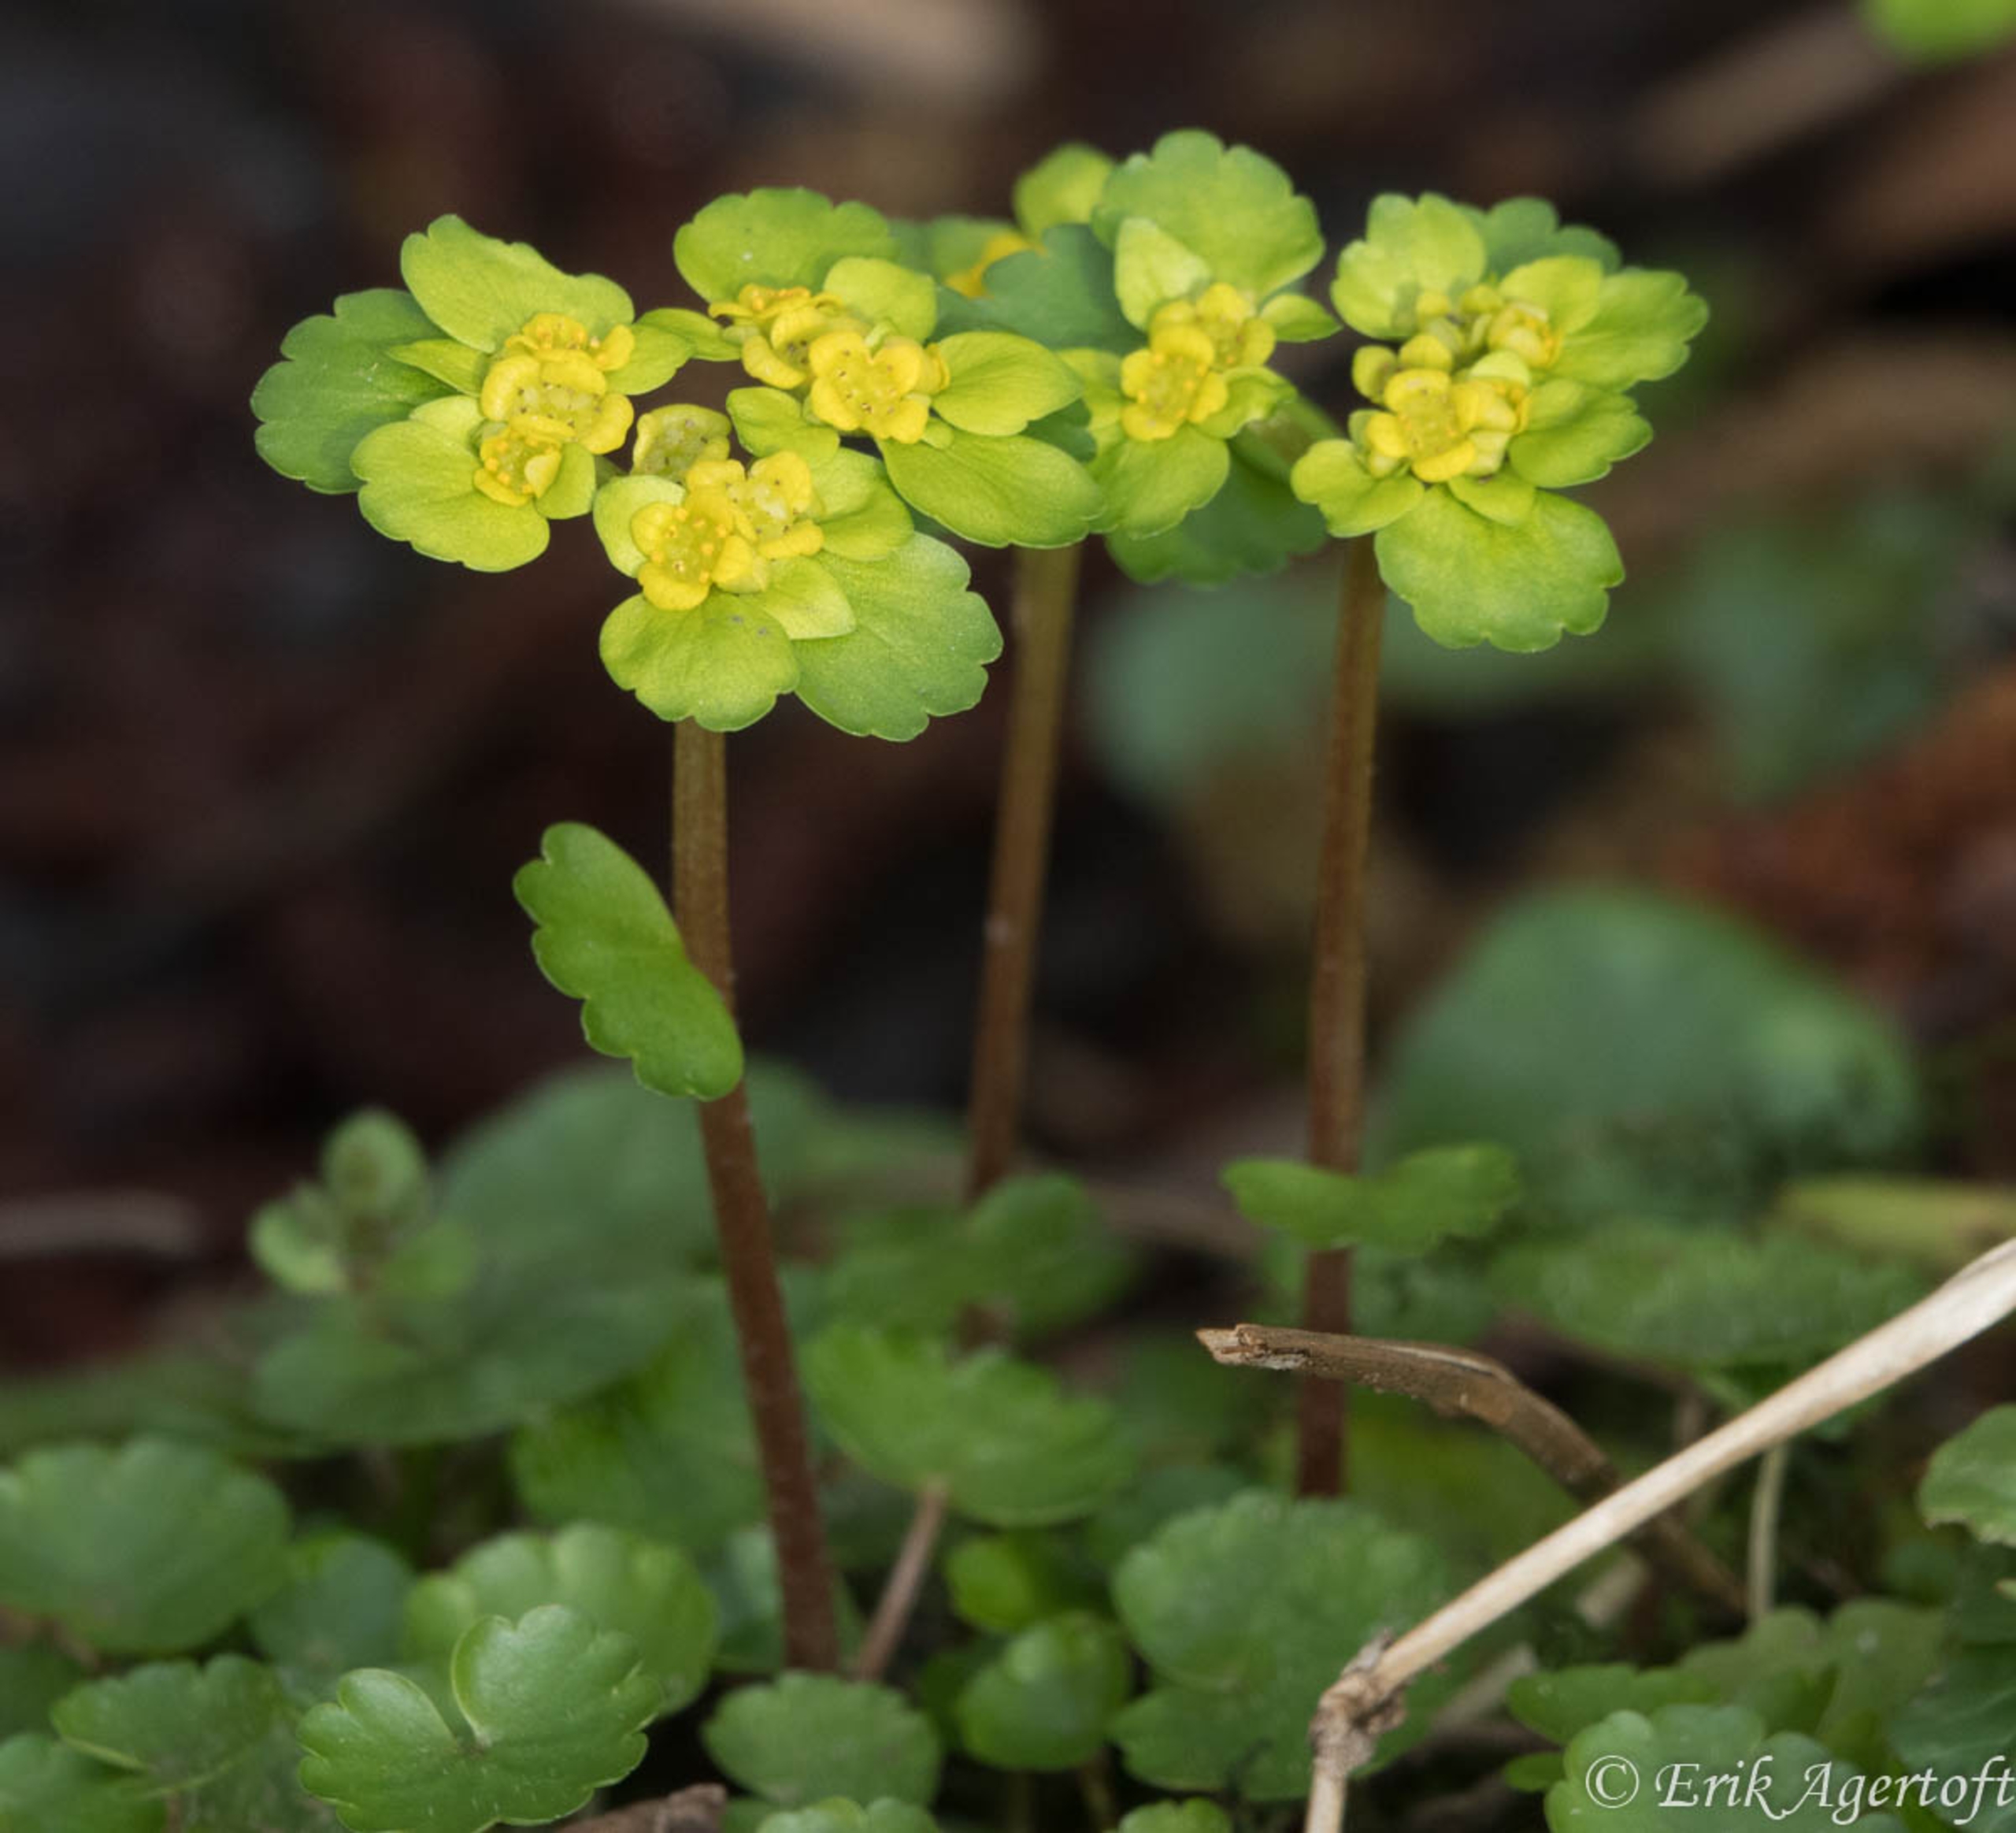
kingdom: Plantae
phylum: Tracheophyta
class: Magnoliopsida
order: Saxifragales
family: Saxifragaceae
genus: Chrysosplenium
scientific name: Chrysosplenium alternifolium
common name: Almindelig milturt
